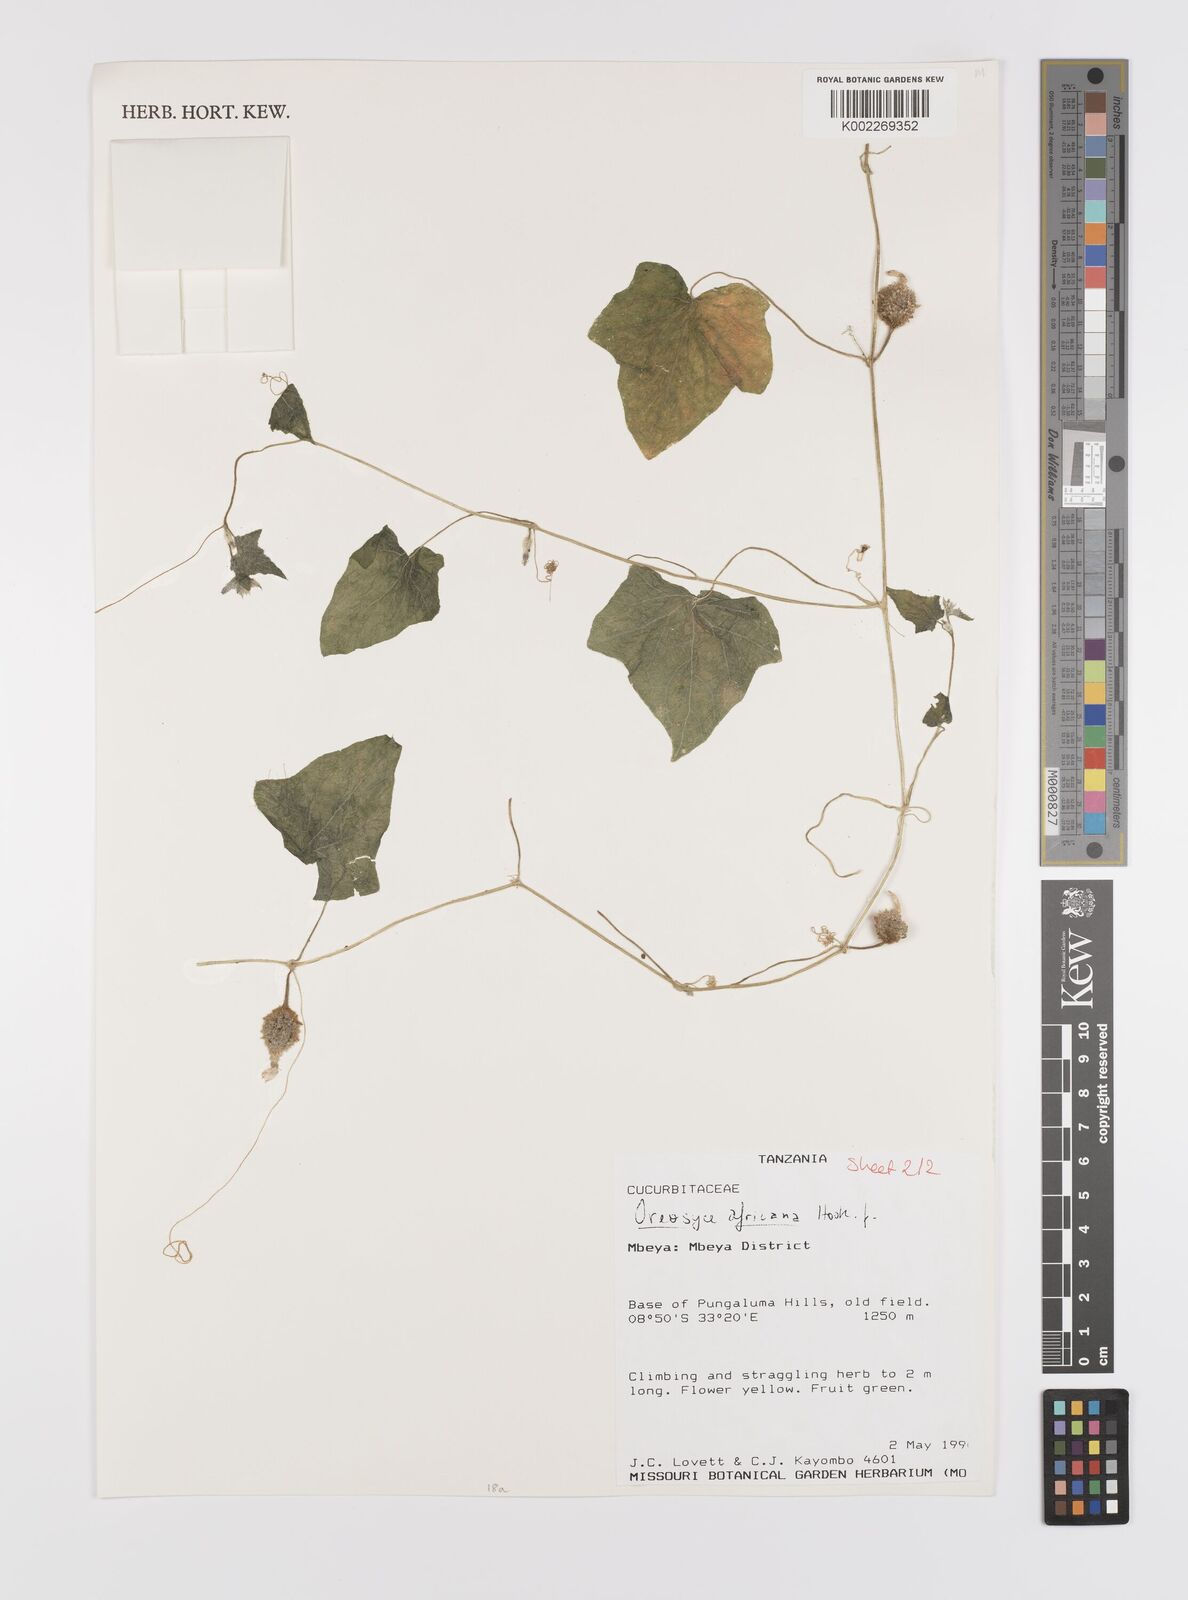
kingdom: Plantae
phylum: Tracheophyta
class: Magnoliopsida
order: Cucurbitales
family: Cucurbitaceae
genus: Cucumis
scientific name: Cucumis oreosyce
